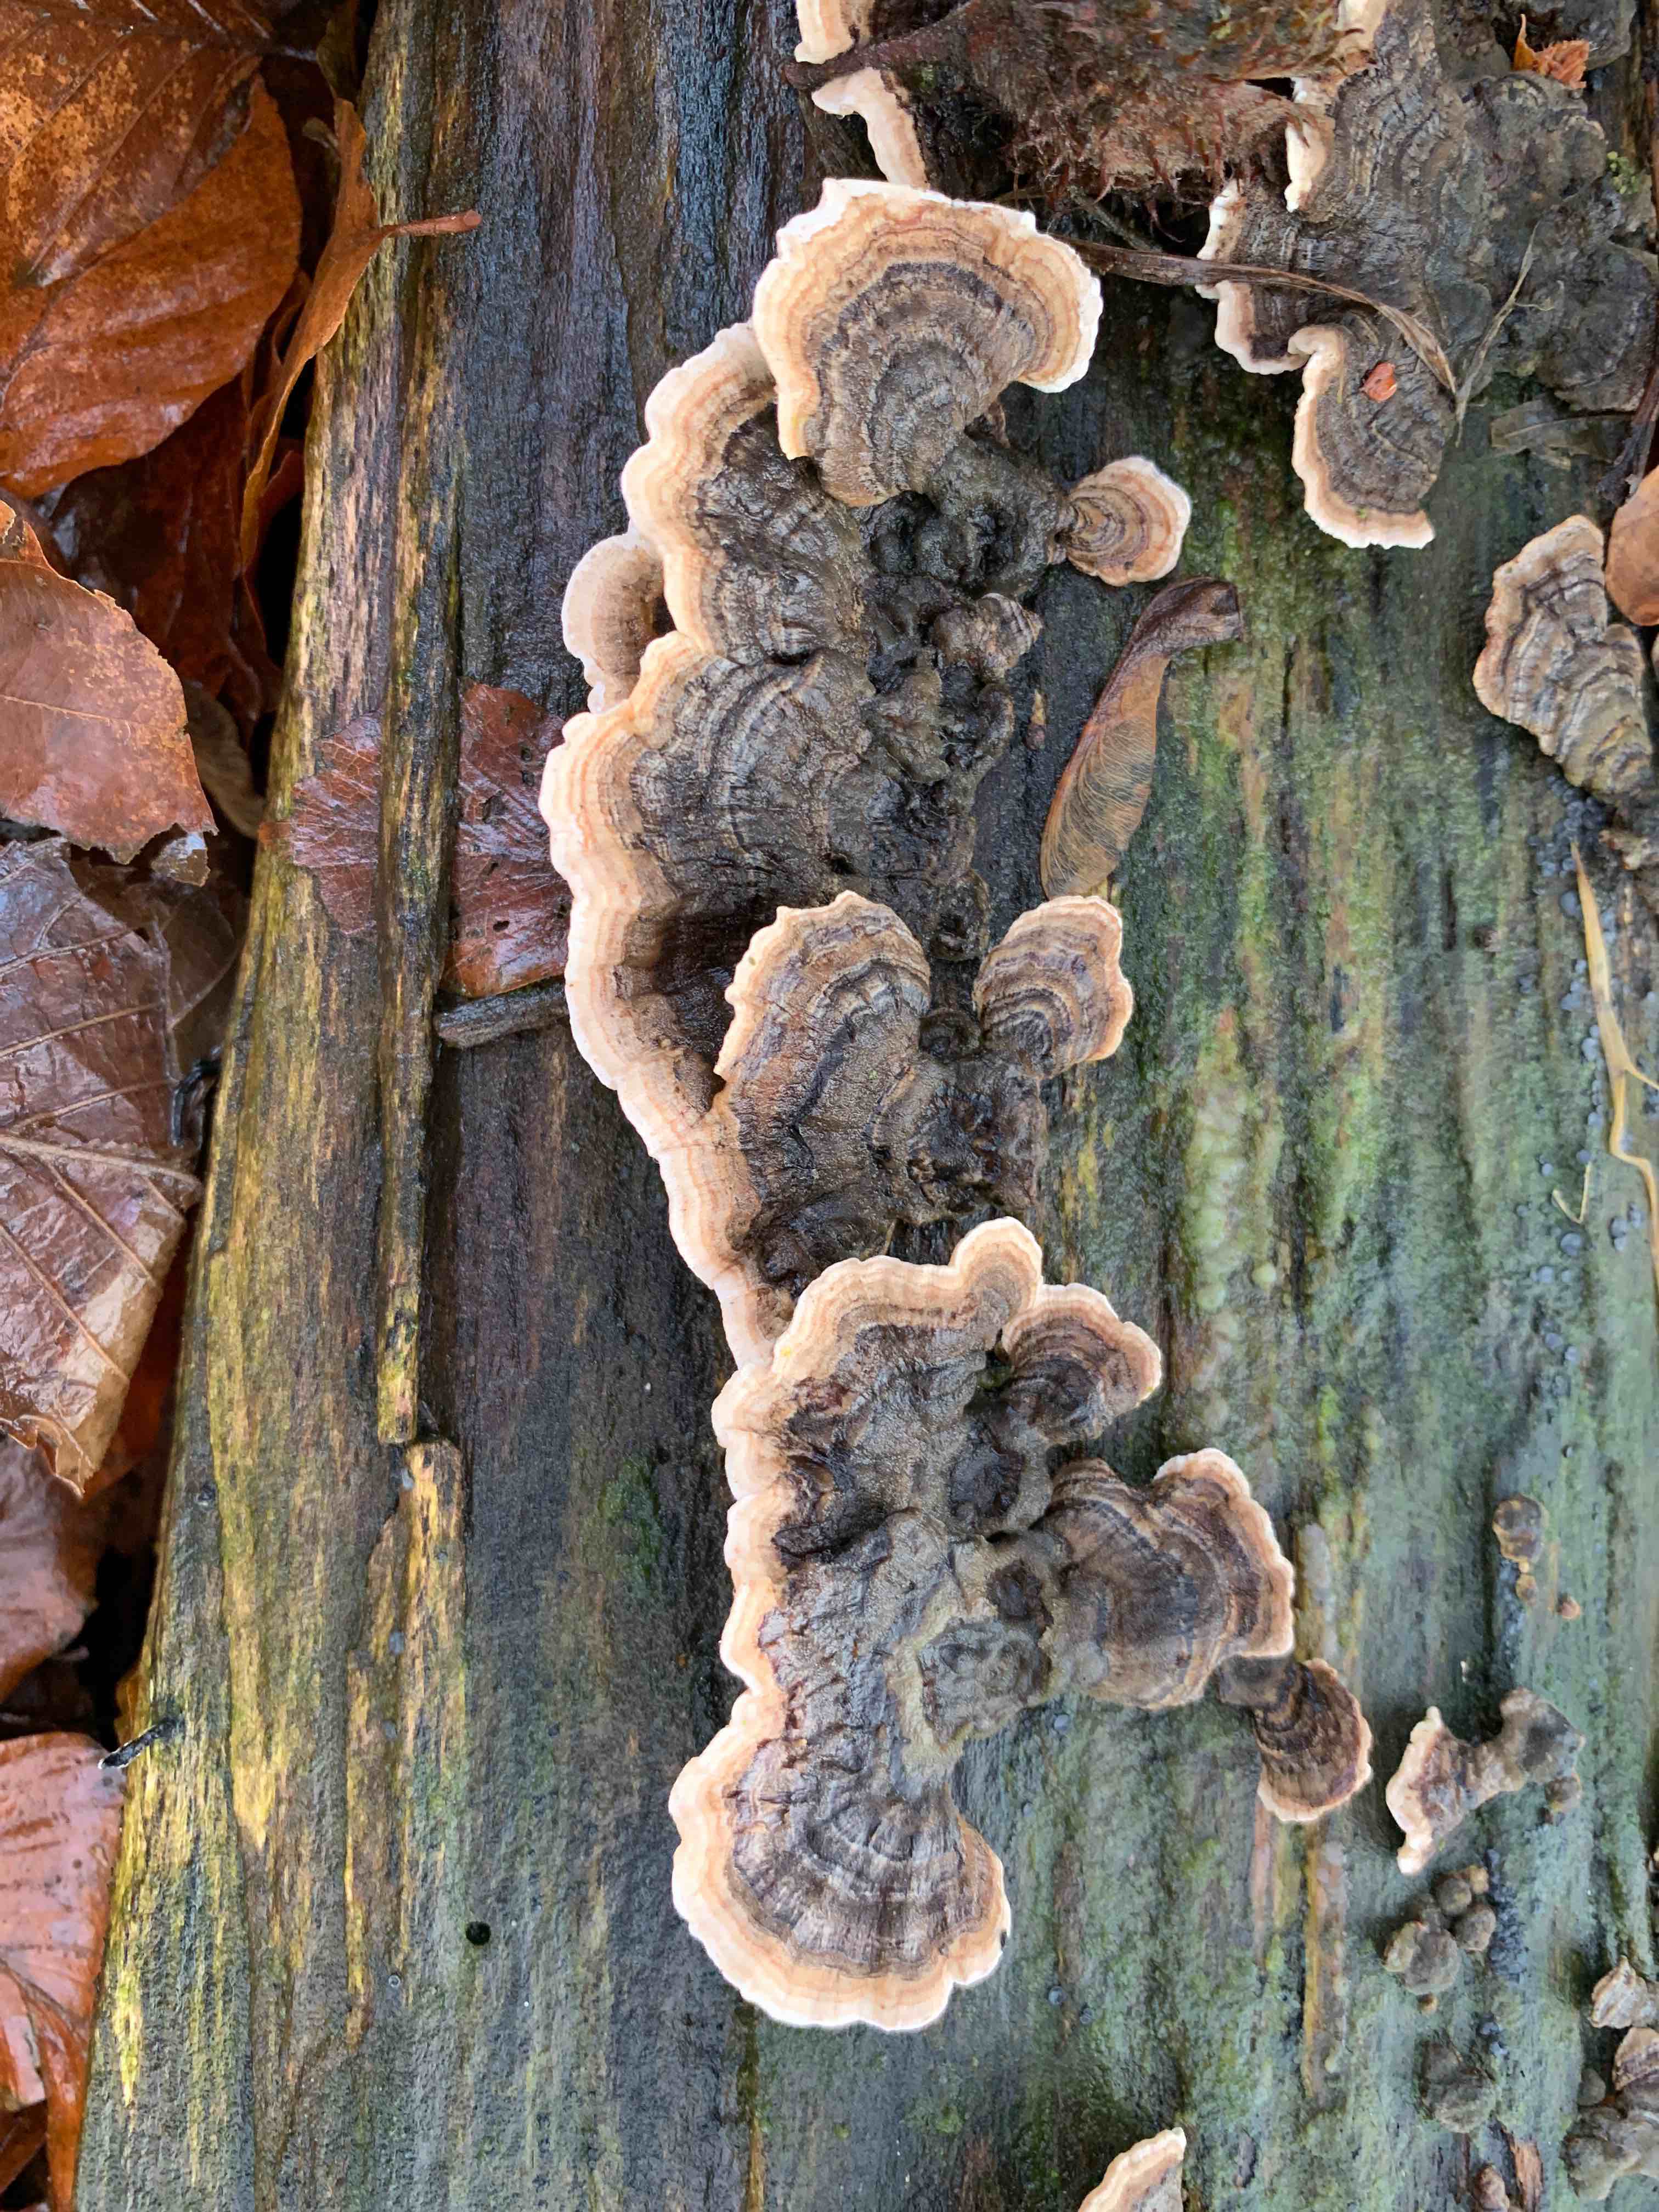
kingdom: Fungi
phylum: Basidiomycota
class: Agaricomycetes
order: Polyporales
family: Polyporaceae
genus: Trametes
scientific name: Trametes versicolor
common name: broget læderporesvamp
